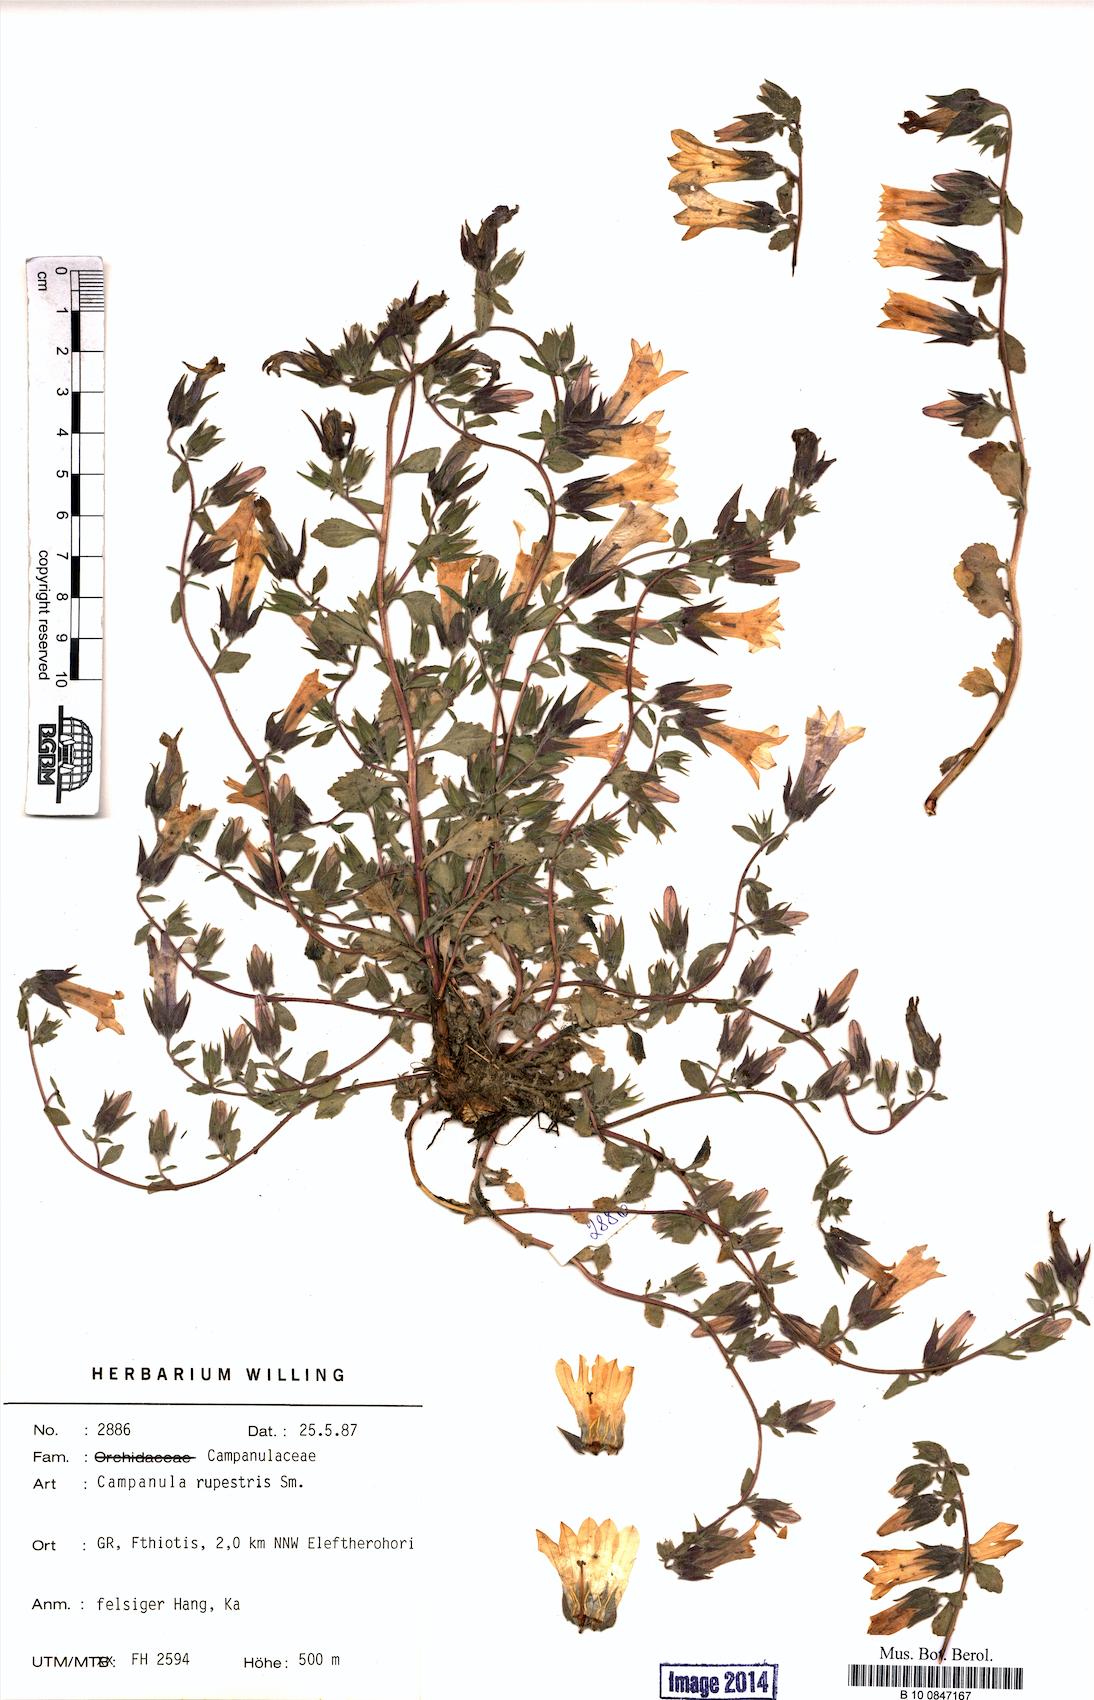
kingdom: Plantae
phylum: Tracheophyta
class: Magnoliopsida
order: Asterales
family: Campanulaceae
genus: Campanula
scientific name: Campanula rupestris
